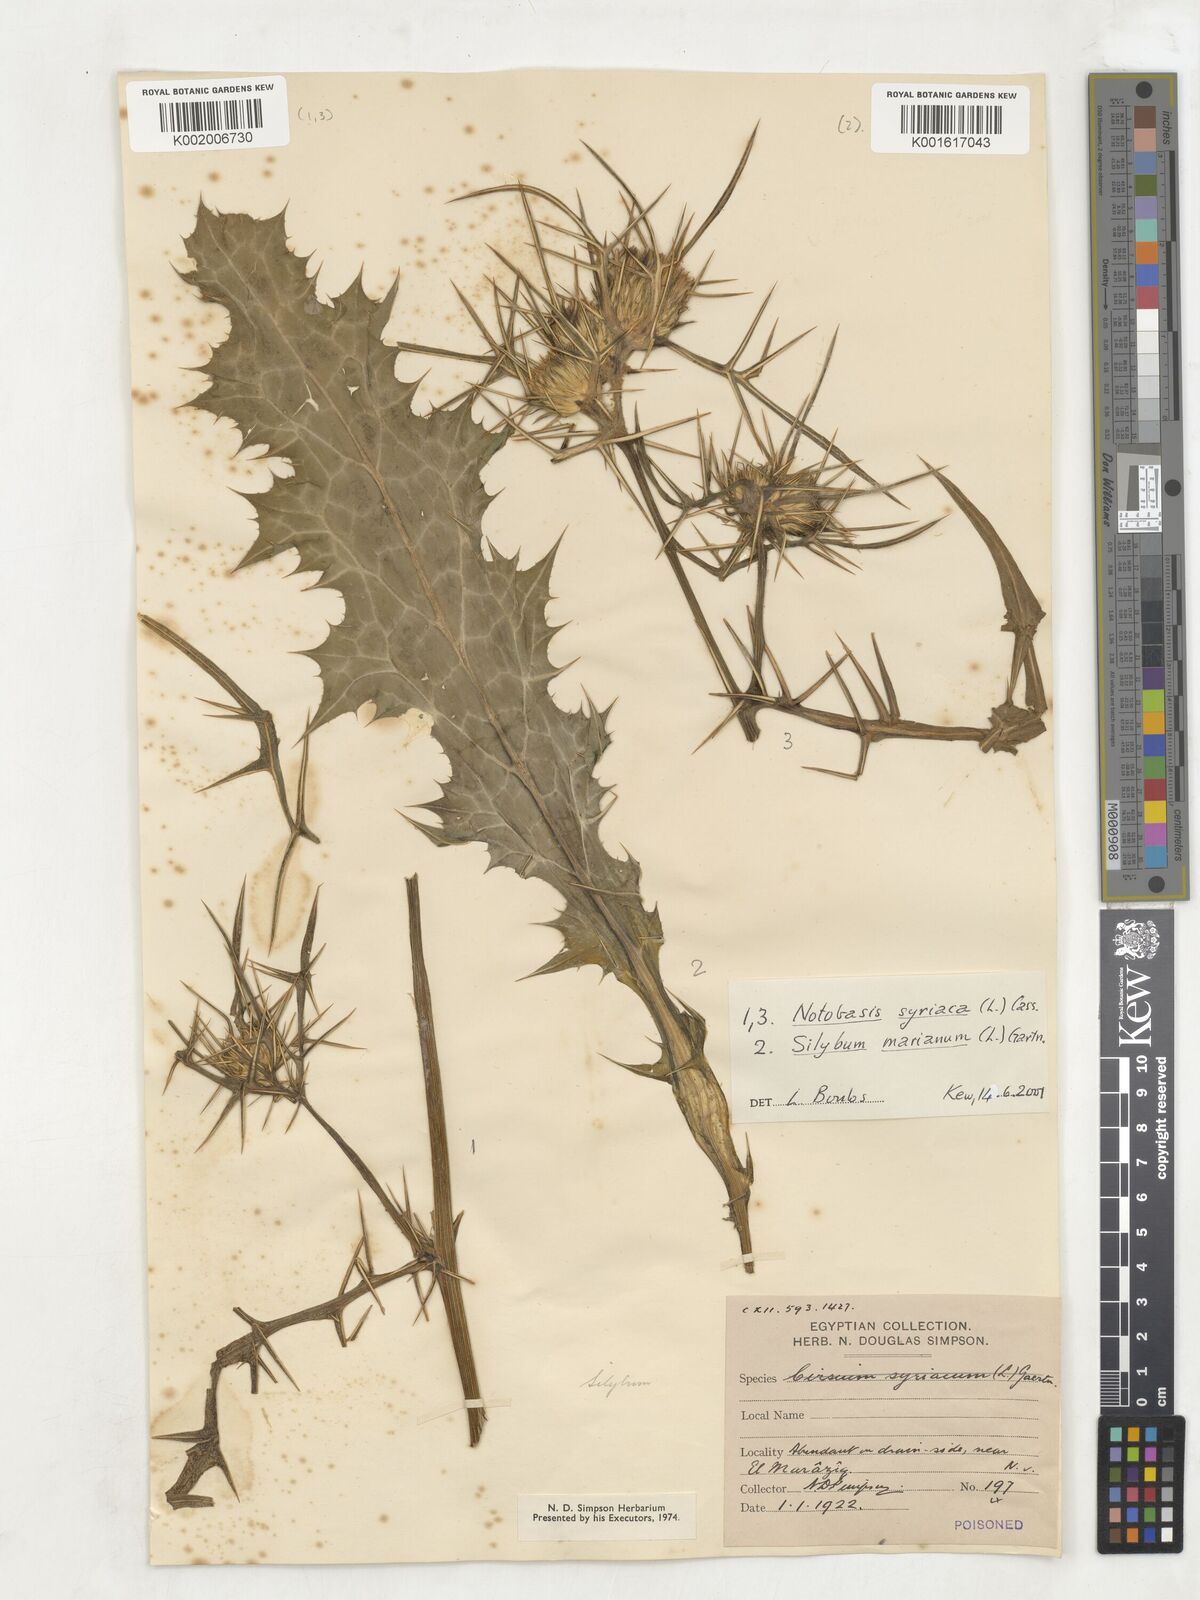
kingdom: Plantae
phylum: Tracheophyta
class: Magnoliopsida
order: Asterales
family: Asteraceae
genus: Notobasis
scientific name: Notobasis syriaca
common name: Syrian thistle
